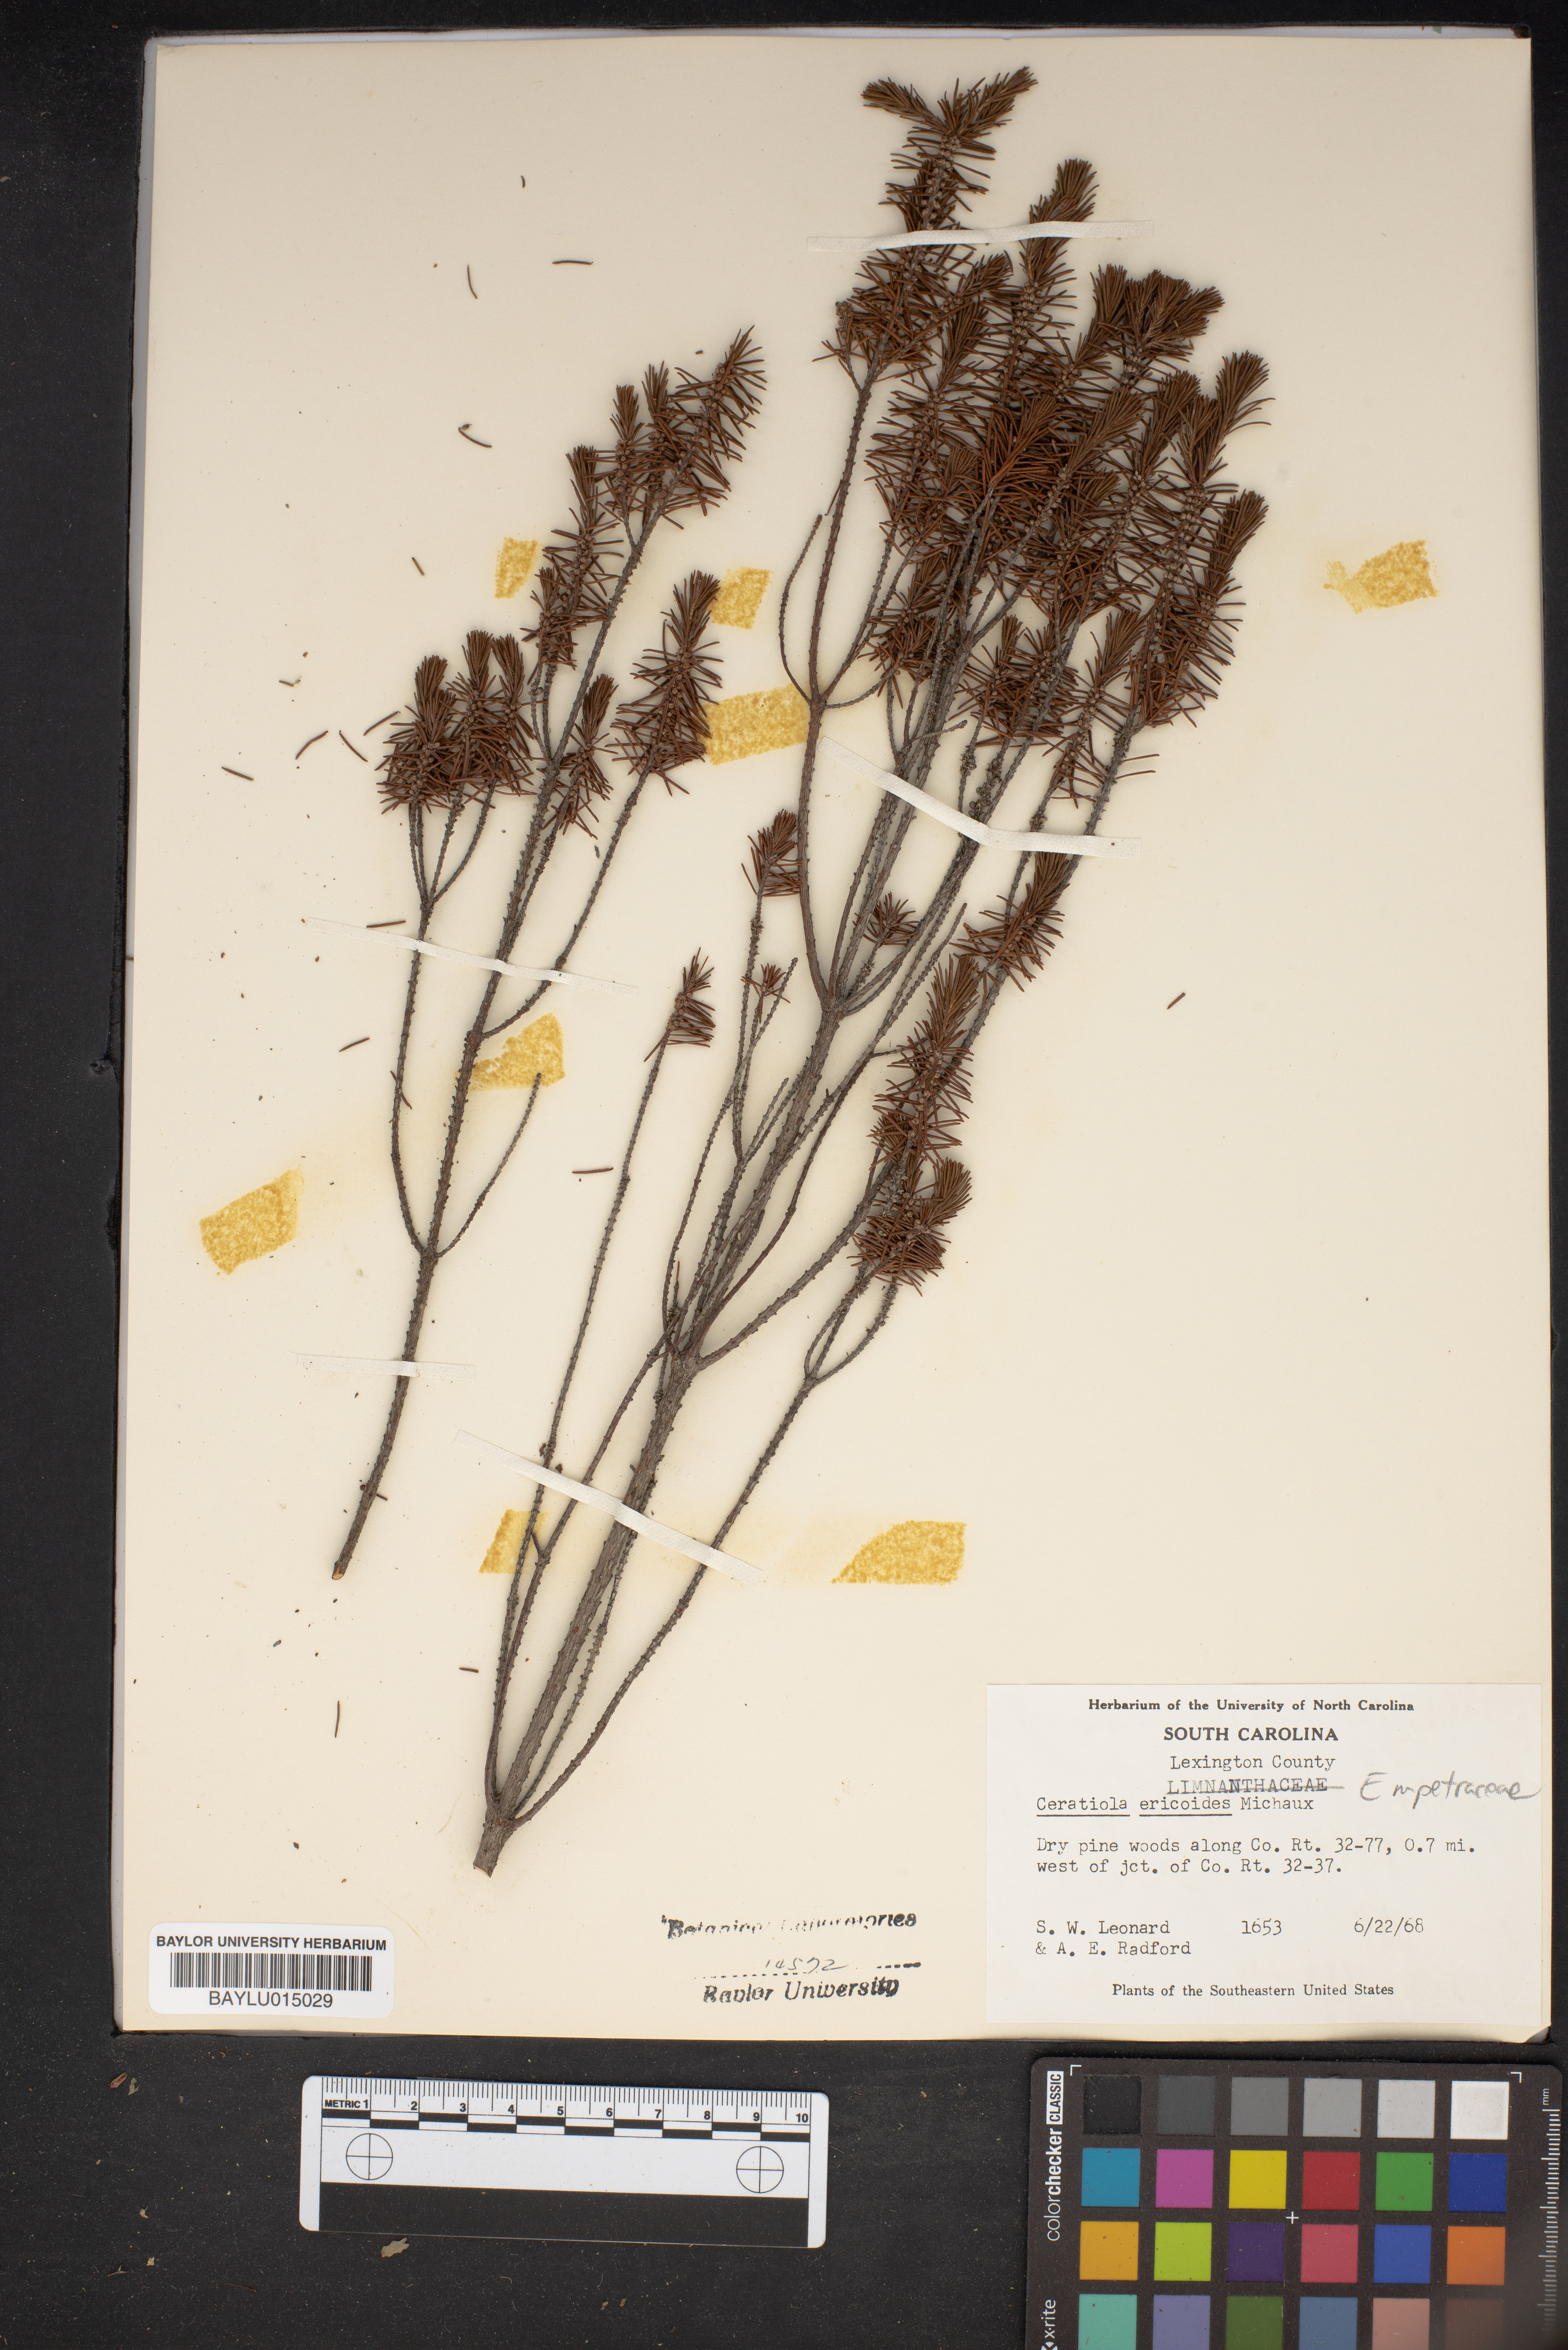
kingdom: Plantae
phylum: Tracheophyta
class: Magnoliopsida
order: Ericales
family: Ericaceae
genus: Ceratiola
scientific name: Ceratiola ericoides
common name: Sandhill-rosemary
